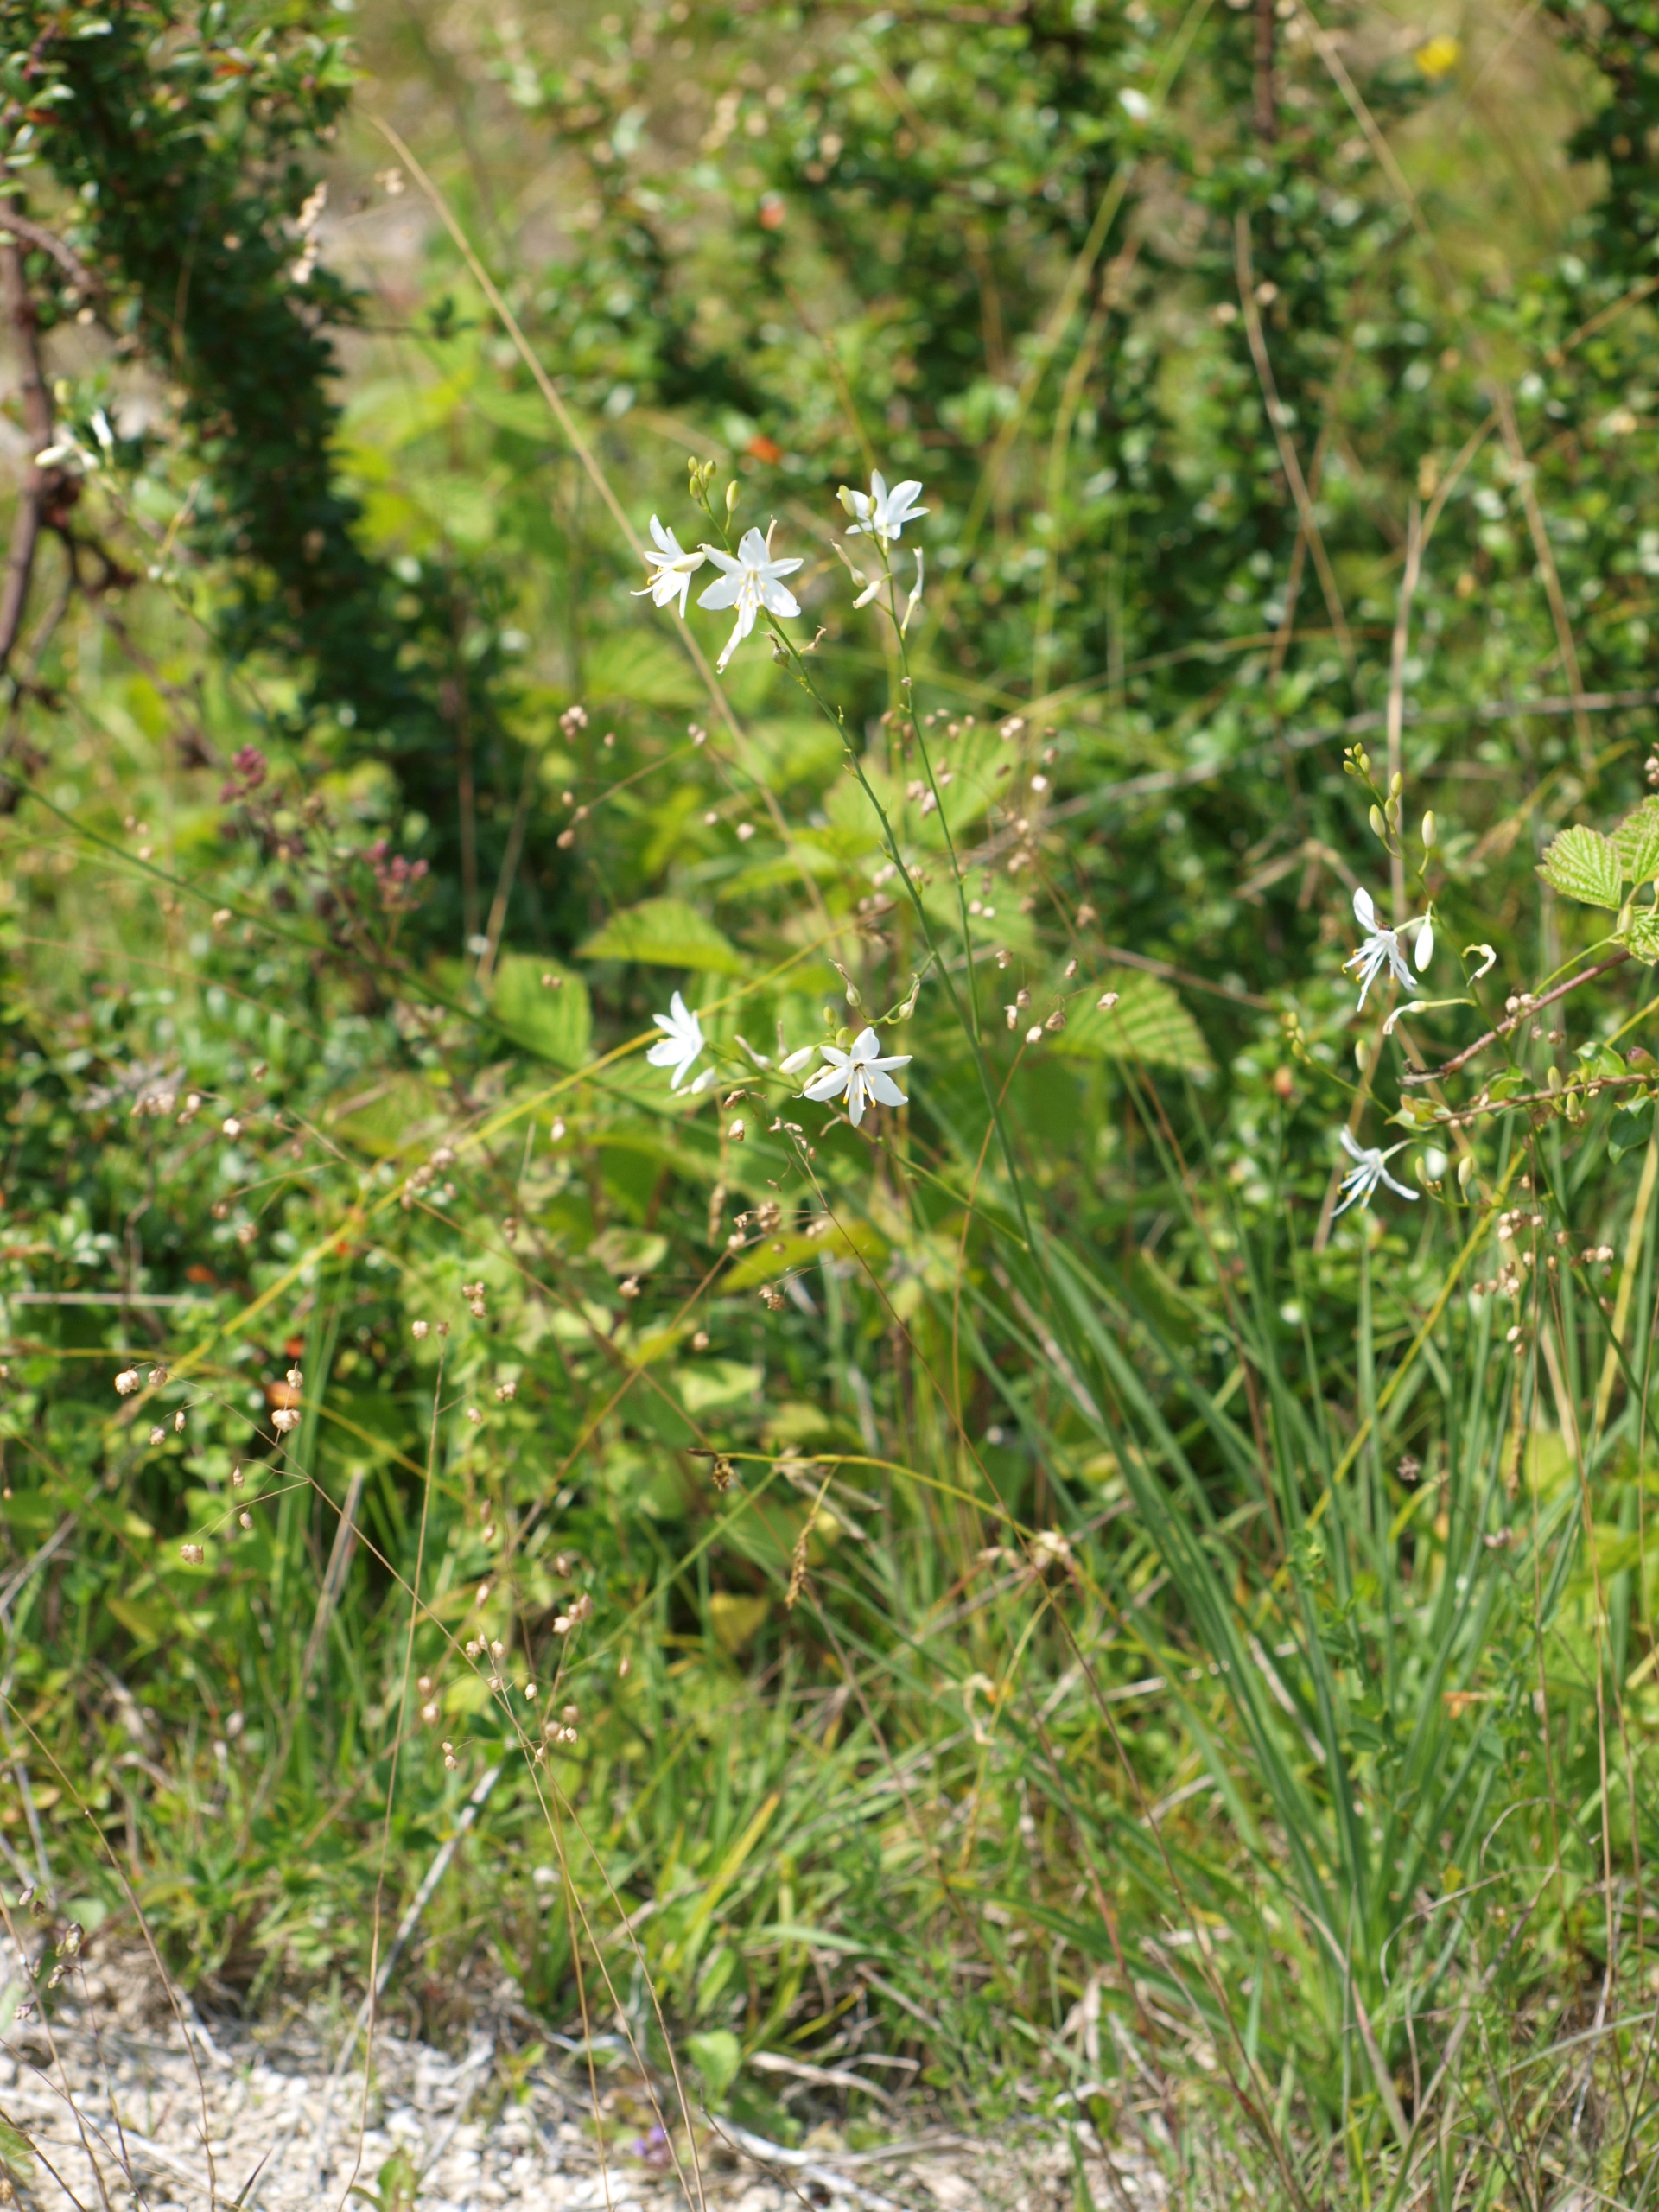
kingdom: Plantae
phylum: Tracheophyta
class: Liliopsida
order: Asparagales
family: Asparagaceae
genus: Anthericum
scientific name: Anthericum ramosum
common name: Grenet edderkopurt
